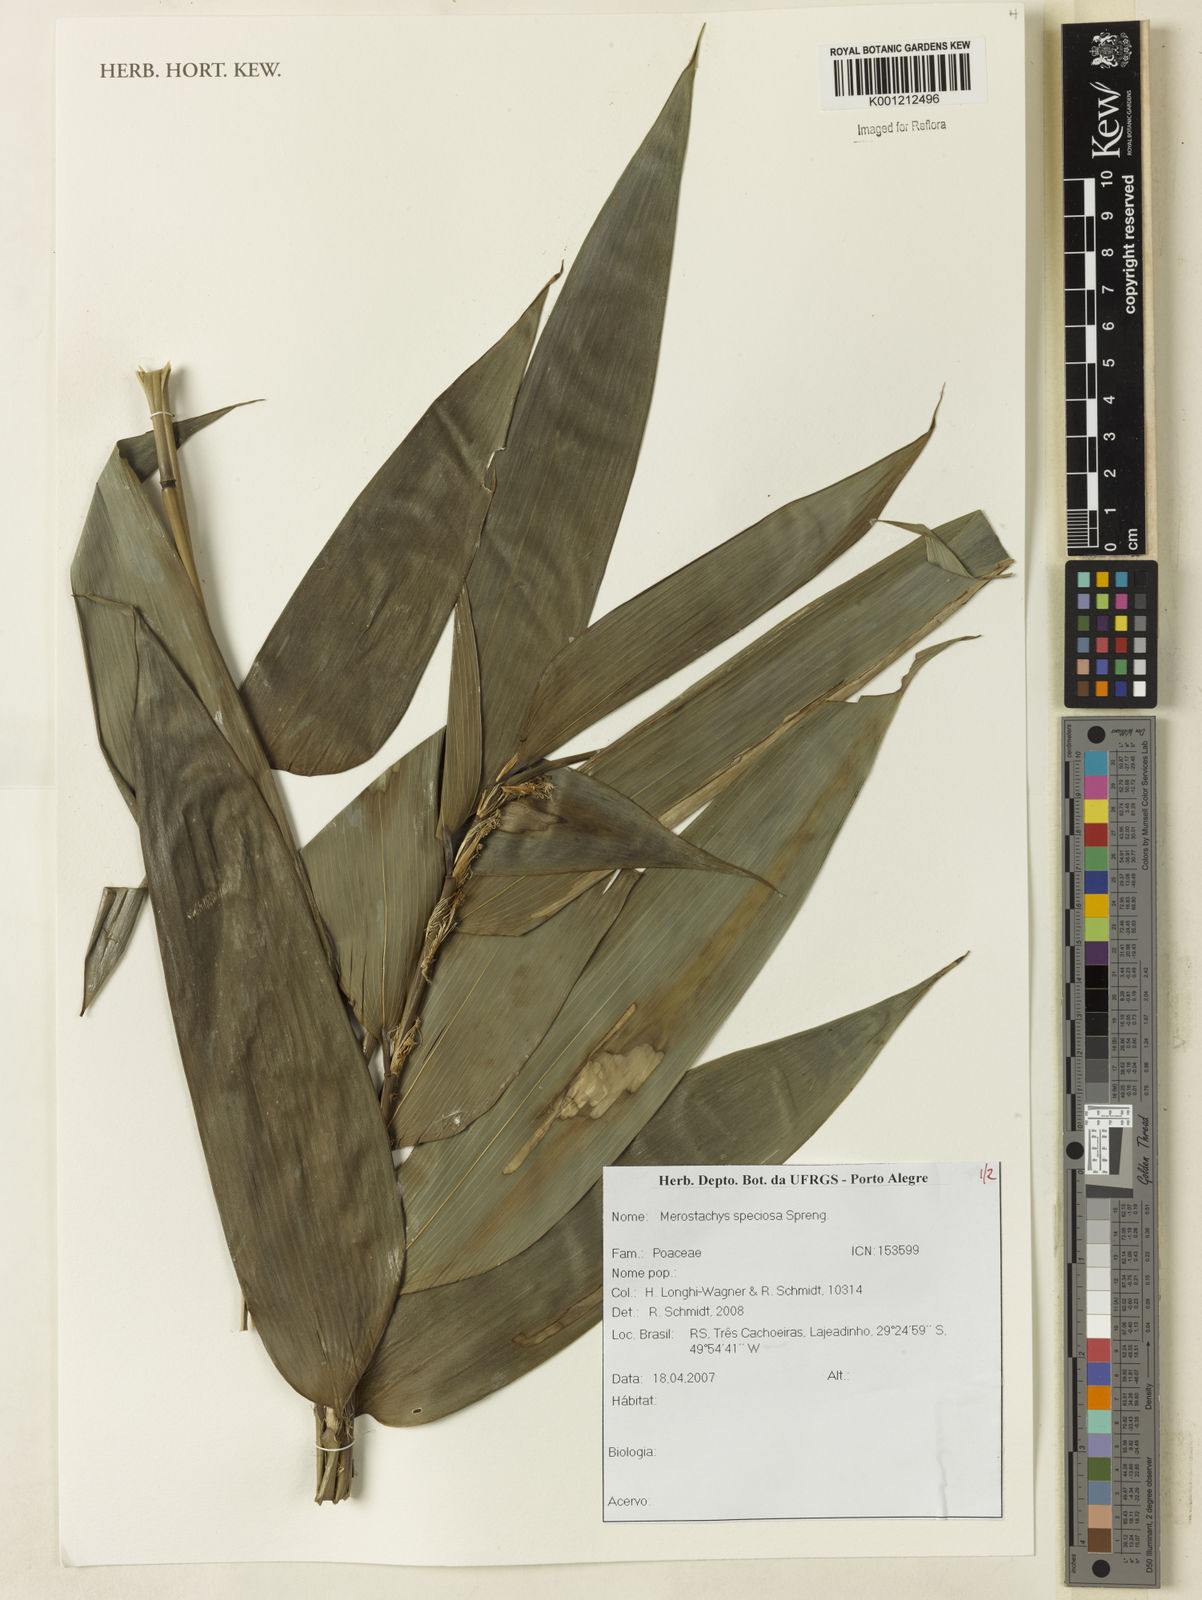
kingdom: Plantae
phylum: Tracheophyta
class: Liliopsida
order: Poales
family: Poaceae
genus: Merostachys
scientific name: Merostachys speciosa
